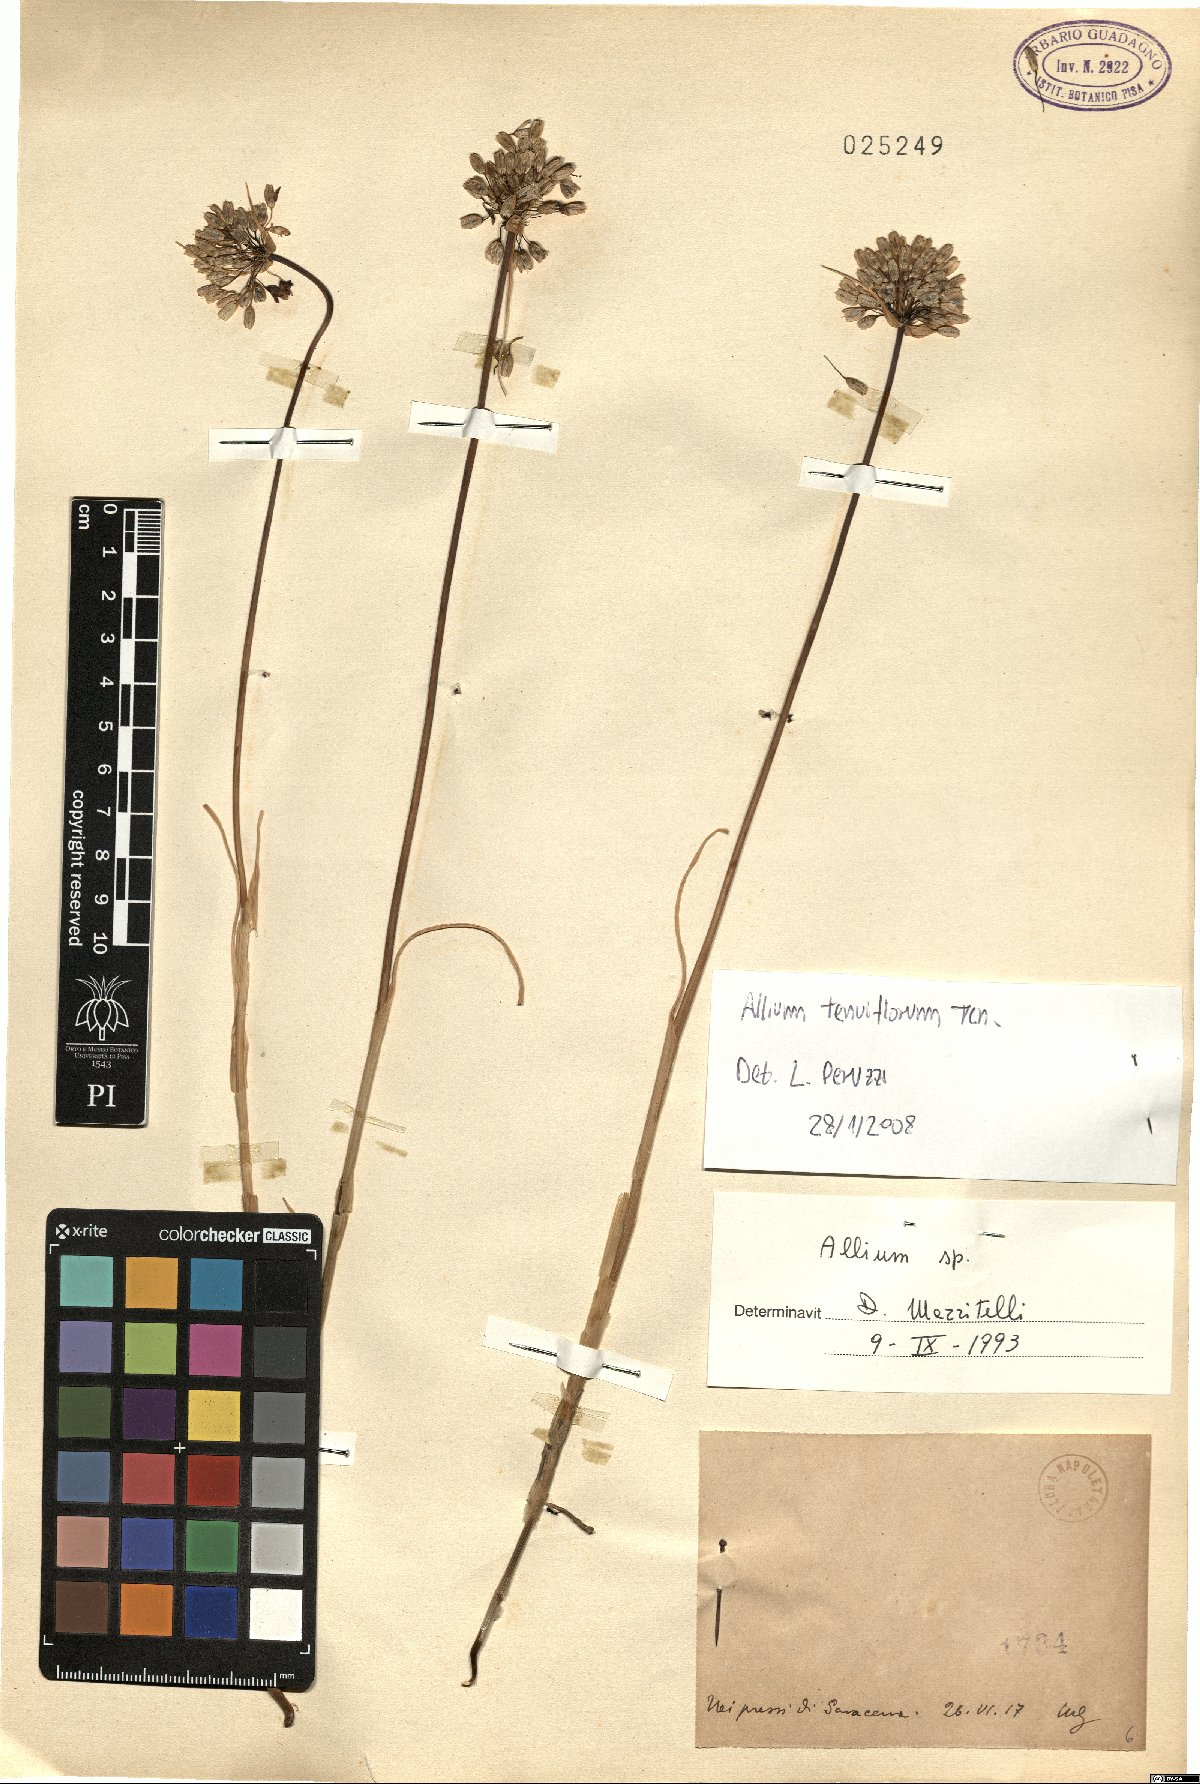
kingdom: Plantae
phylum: Tracheophyta
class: Liliopsida
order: Asparagales
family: Amaryllidaceae
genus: Allium
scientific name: Allium tenuiflorum
